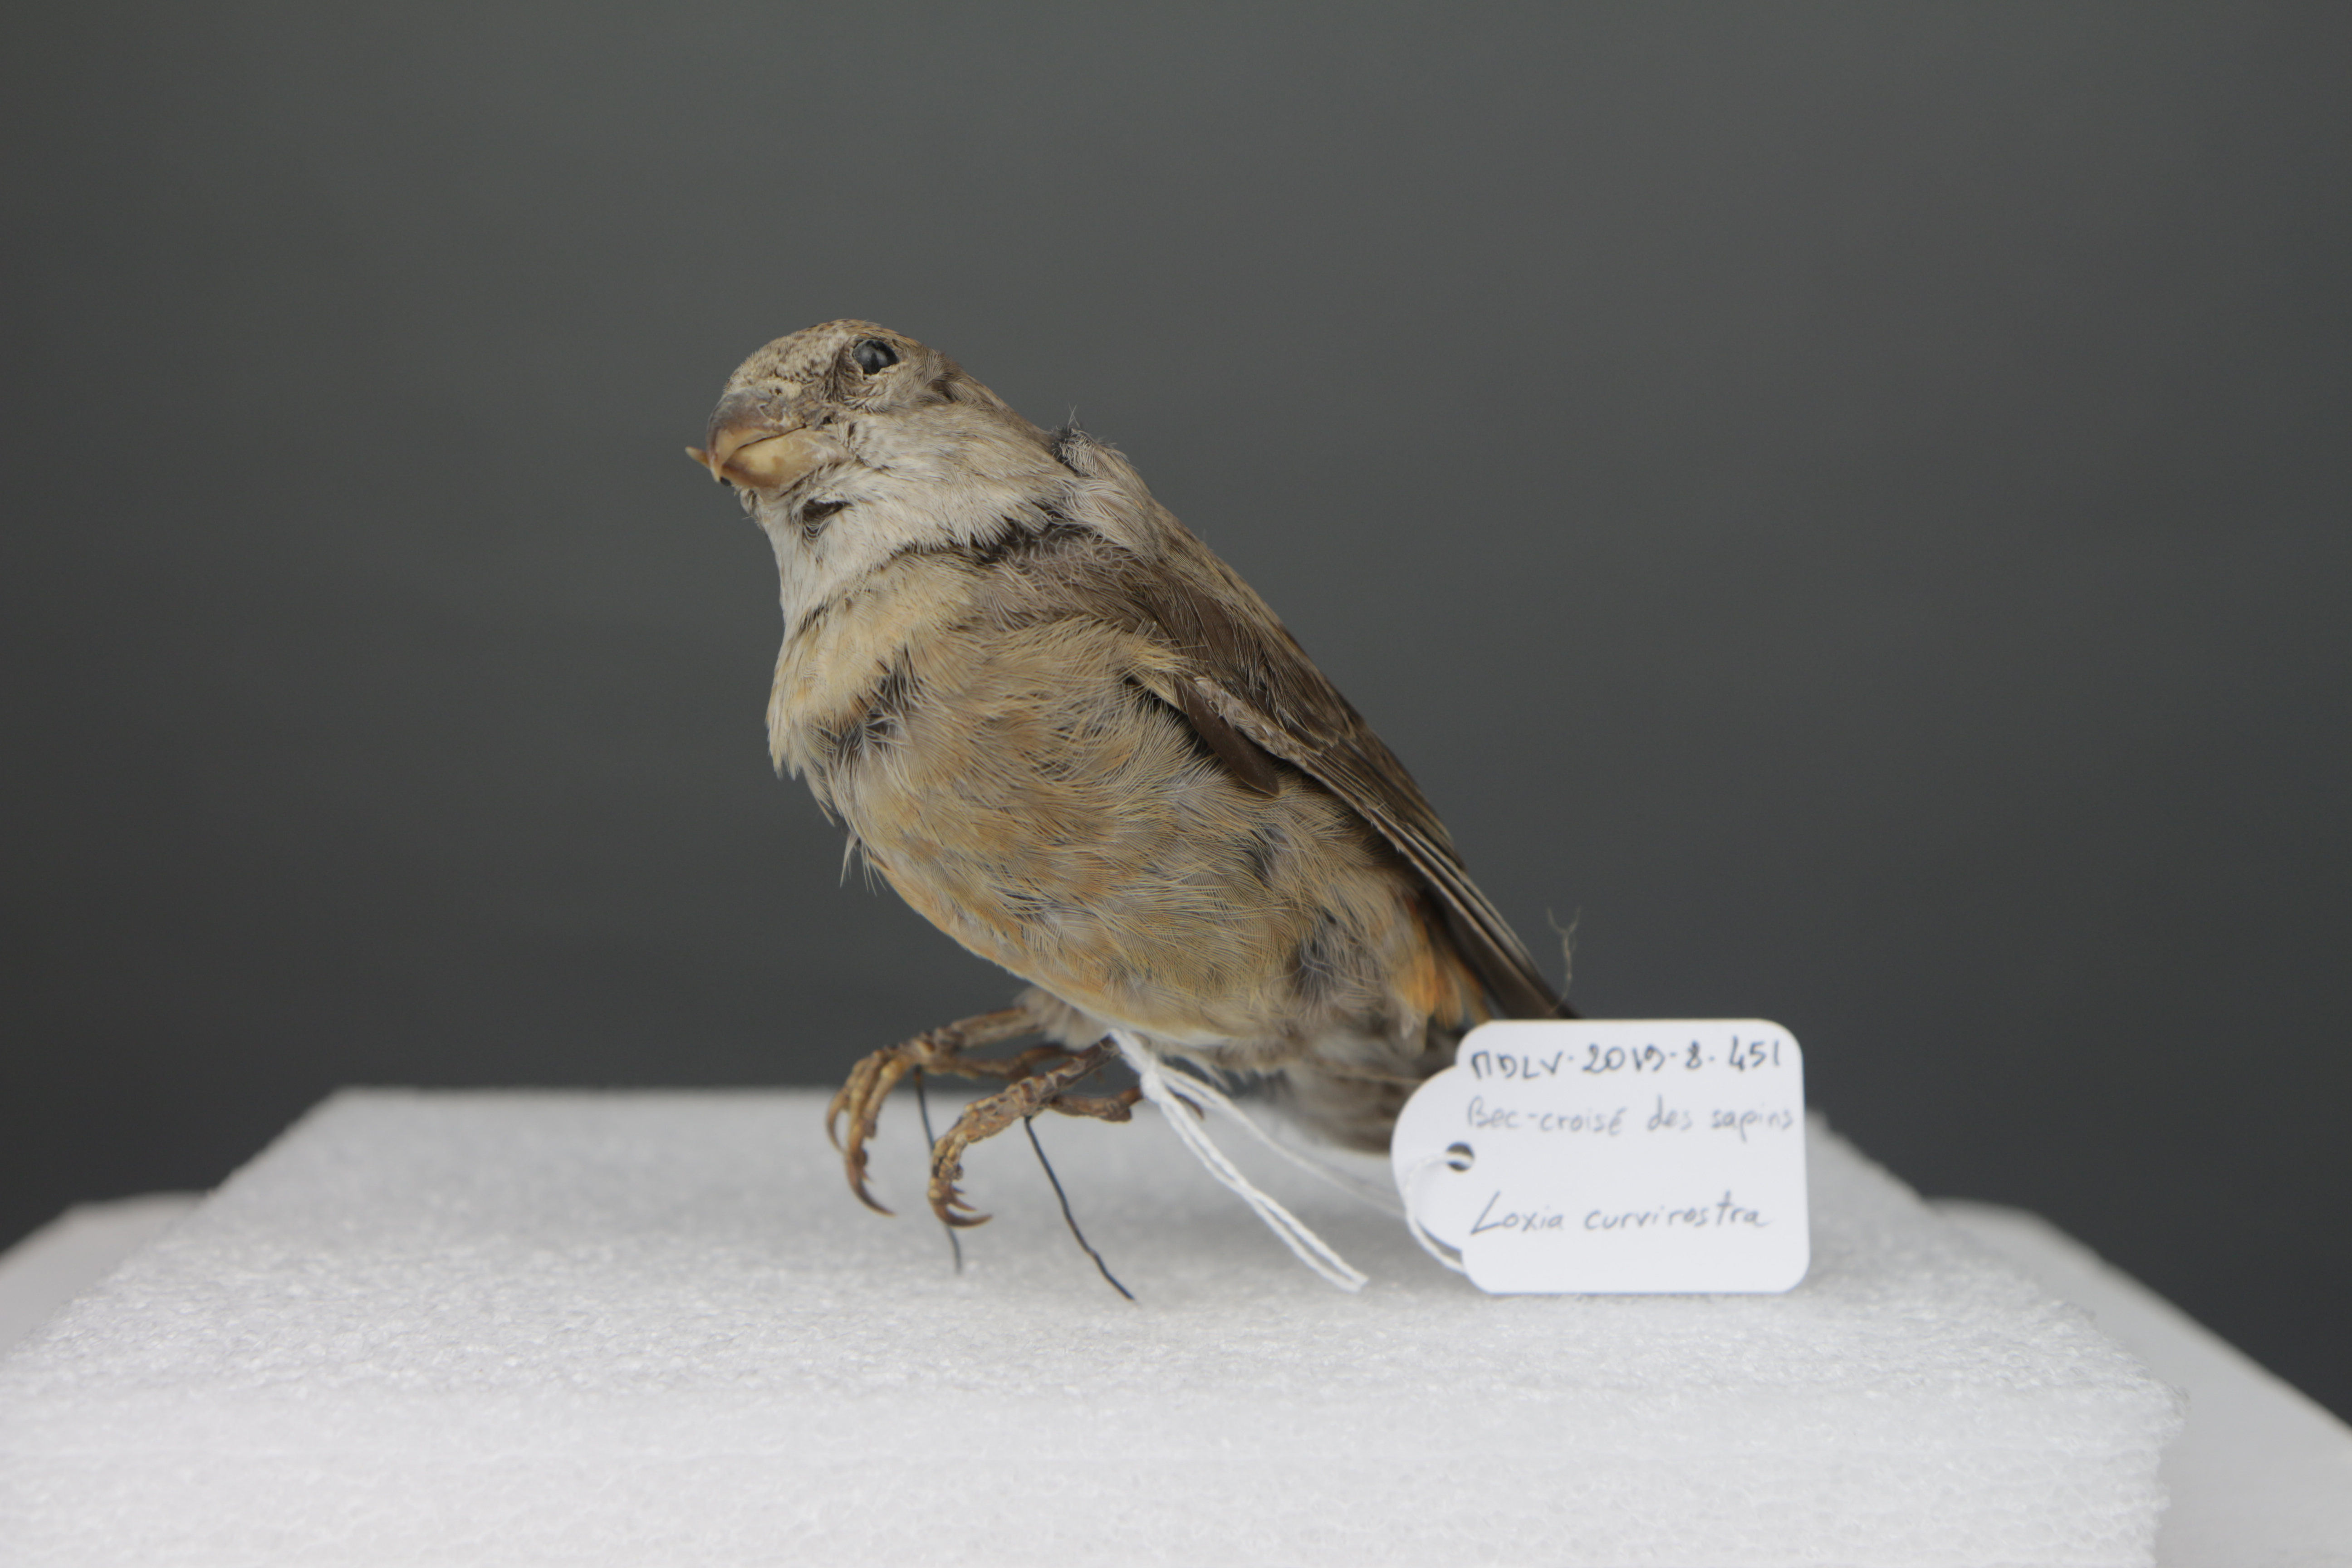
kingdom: Animalia
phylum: Chordata
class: Aves
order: Passeriformes
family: Fringillidae
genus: Loxia
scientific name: Loxia curvirostra
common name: Red crossbill
